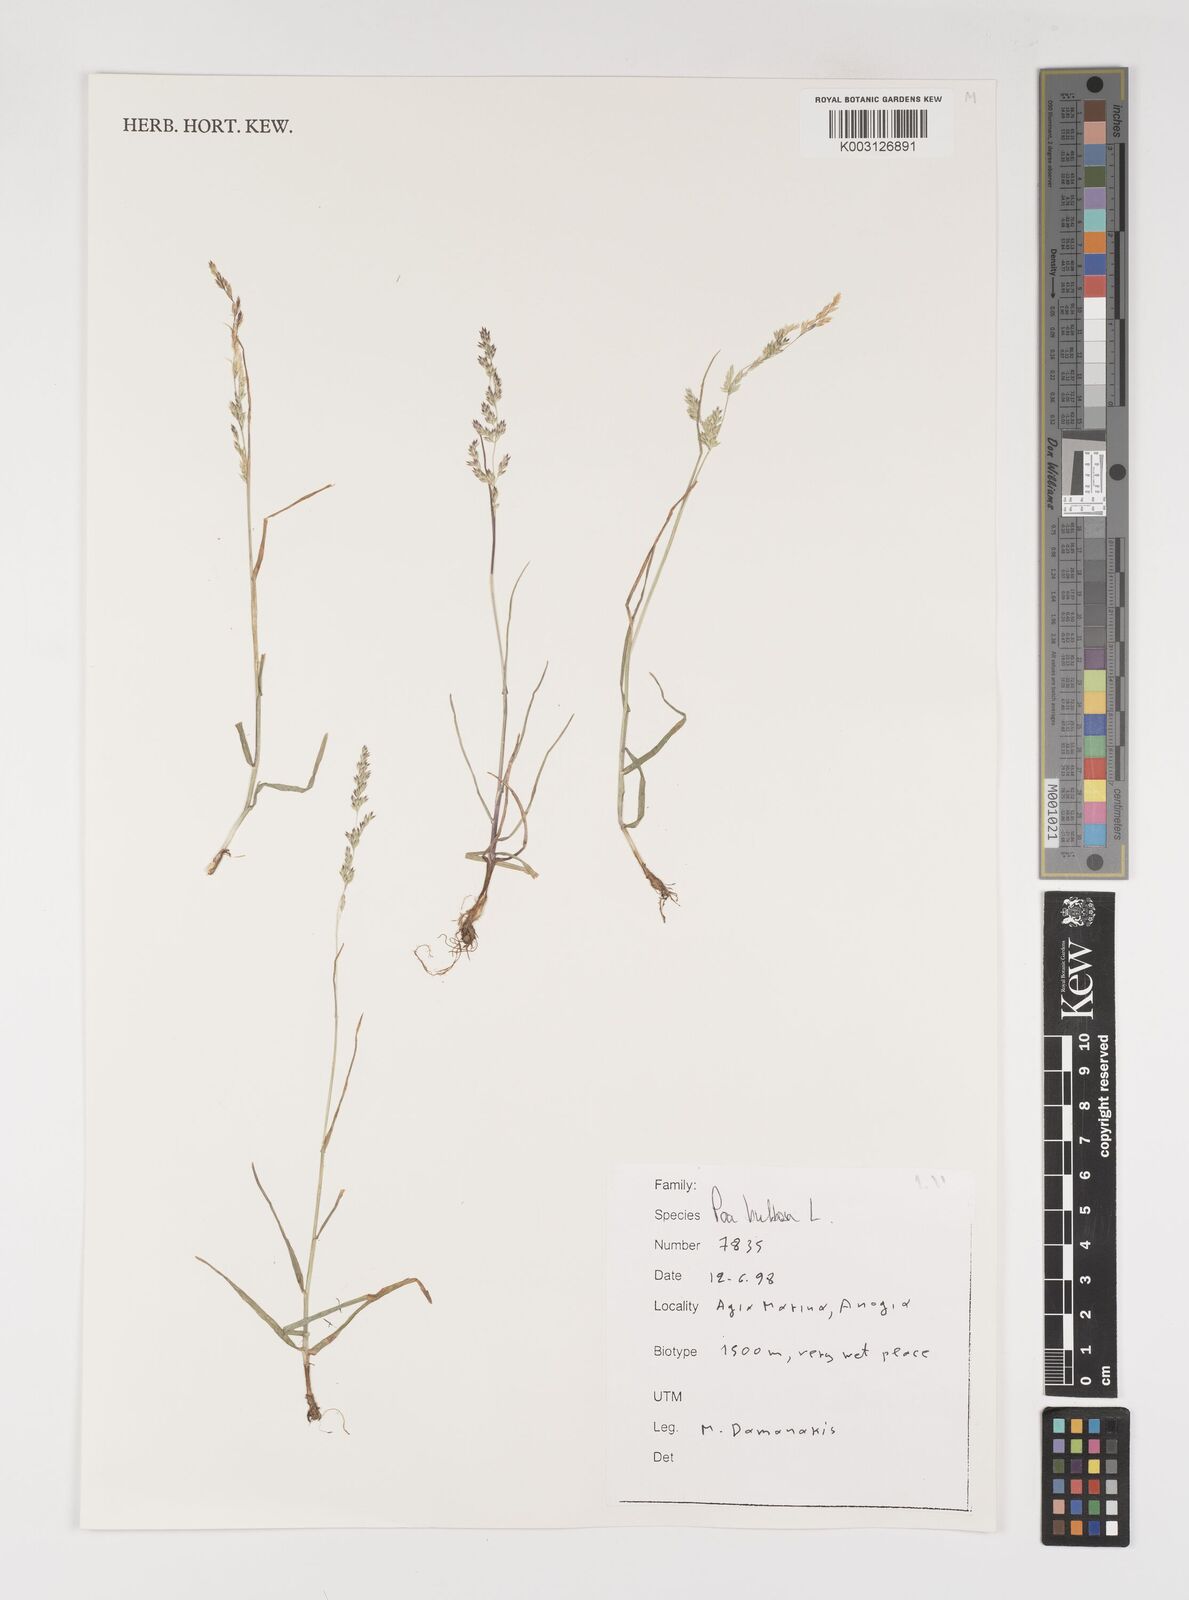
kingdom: Plantae
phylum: Tracheophyta
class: Liliopsida
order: Poales
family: Poaceae
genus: Poa
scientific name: Poa bulbosa
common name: Bulbous bluegrass
